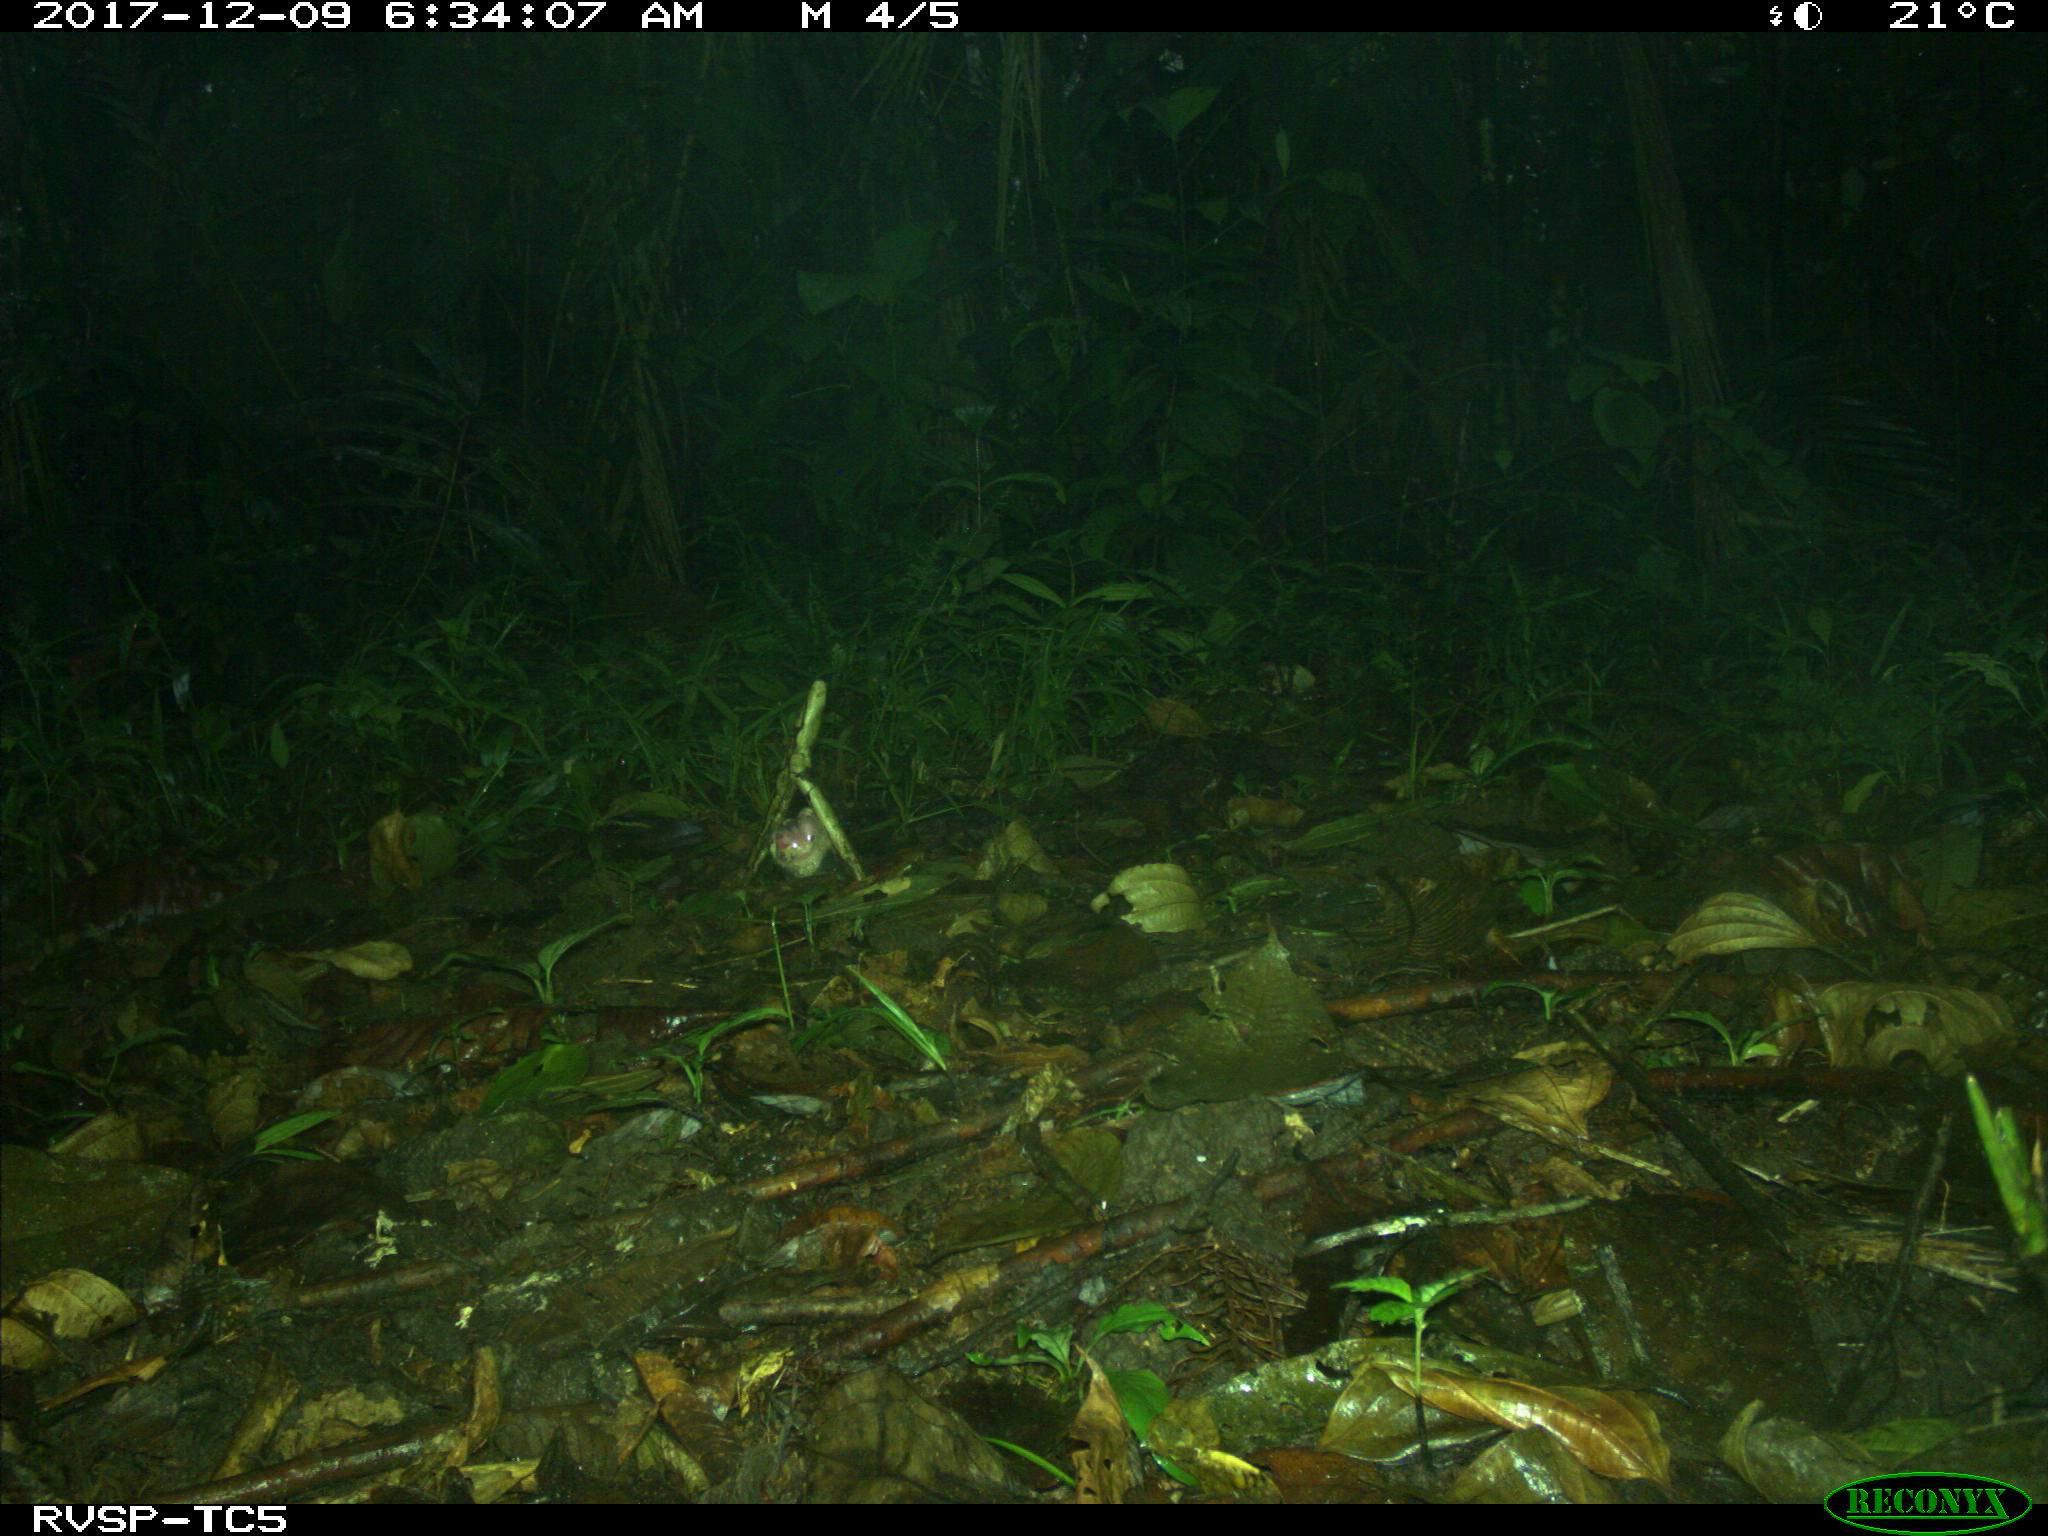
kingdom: Animalia
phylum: Chordata
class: Mammalia
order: Rodentia
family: Dasyproctidae
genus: Dasyprocta
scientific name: Dasyprocta punctata
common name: Central american agouti
